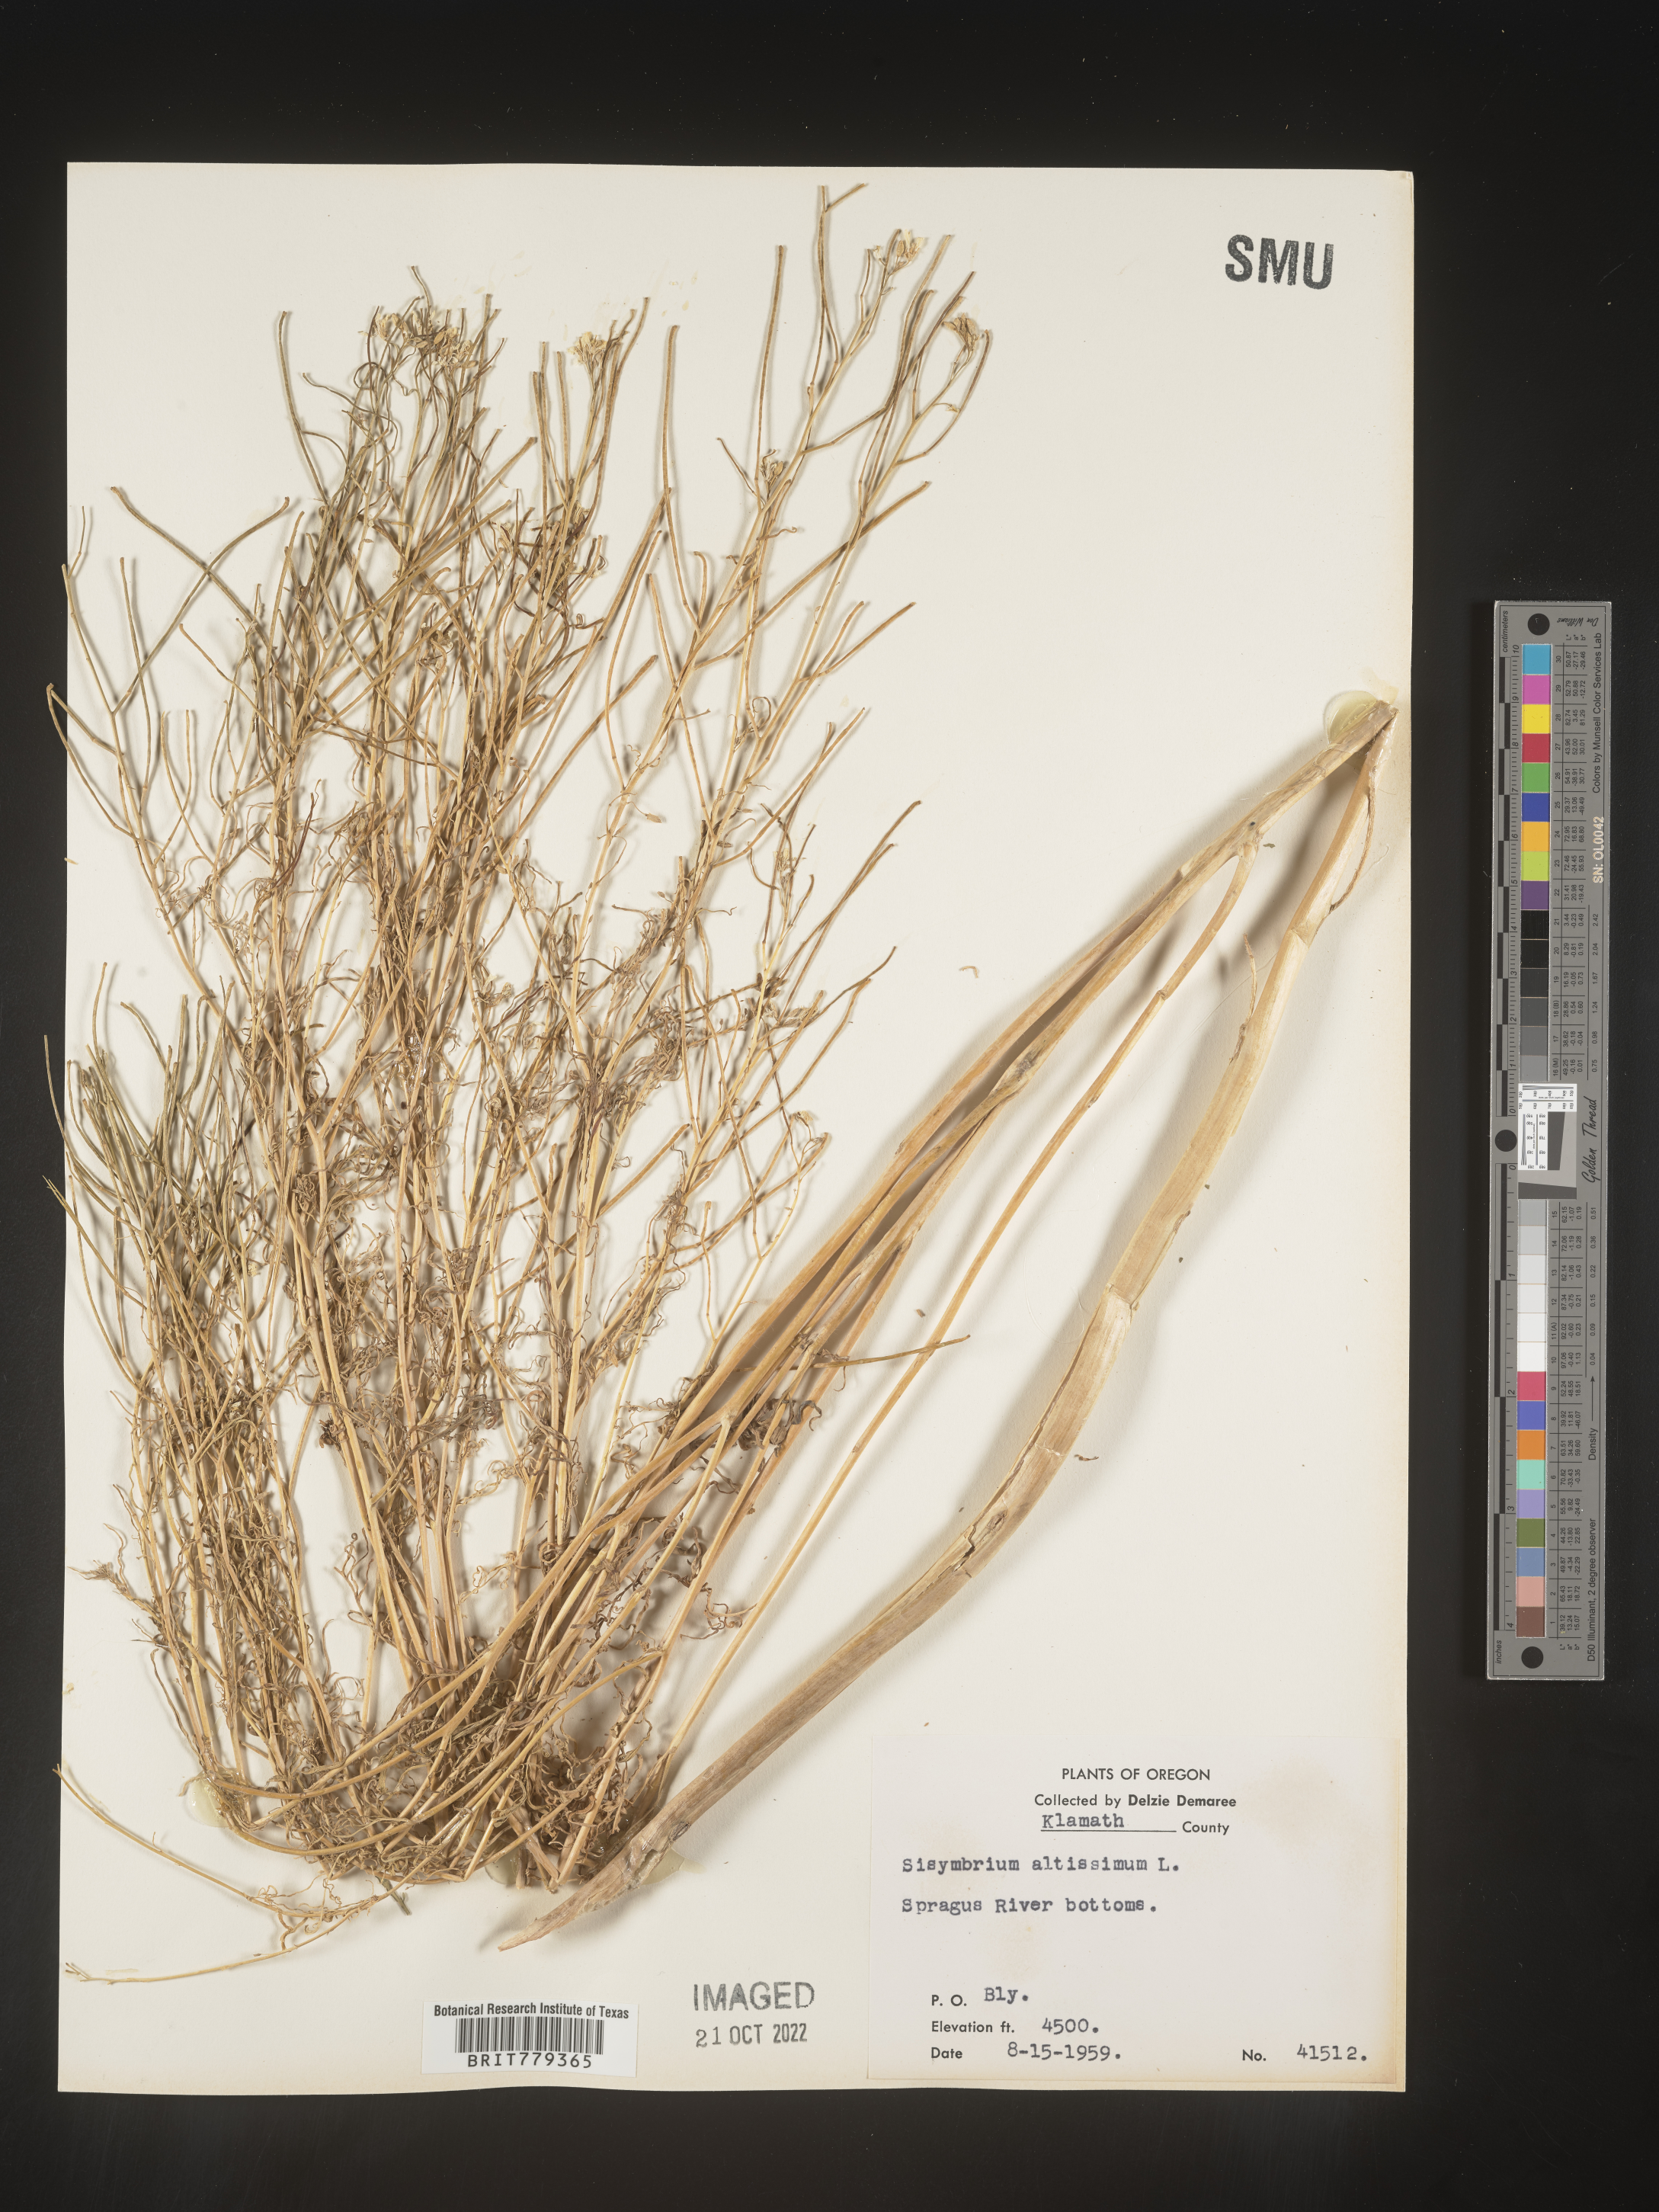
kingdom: Plantae
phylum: Tracheophyta
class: Magnoliopsida
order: Brassicales
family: Brassicaceae
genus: Sisymbrium
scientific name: Sisymbrium altissimum
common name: Tall rocket
